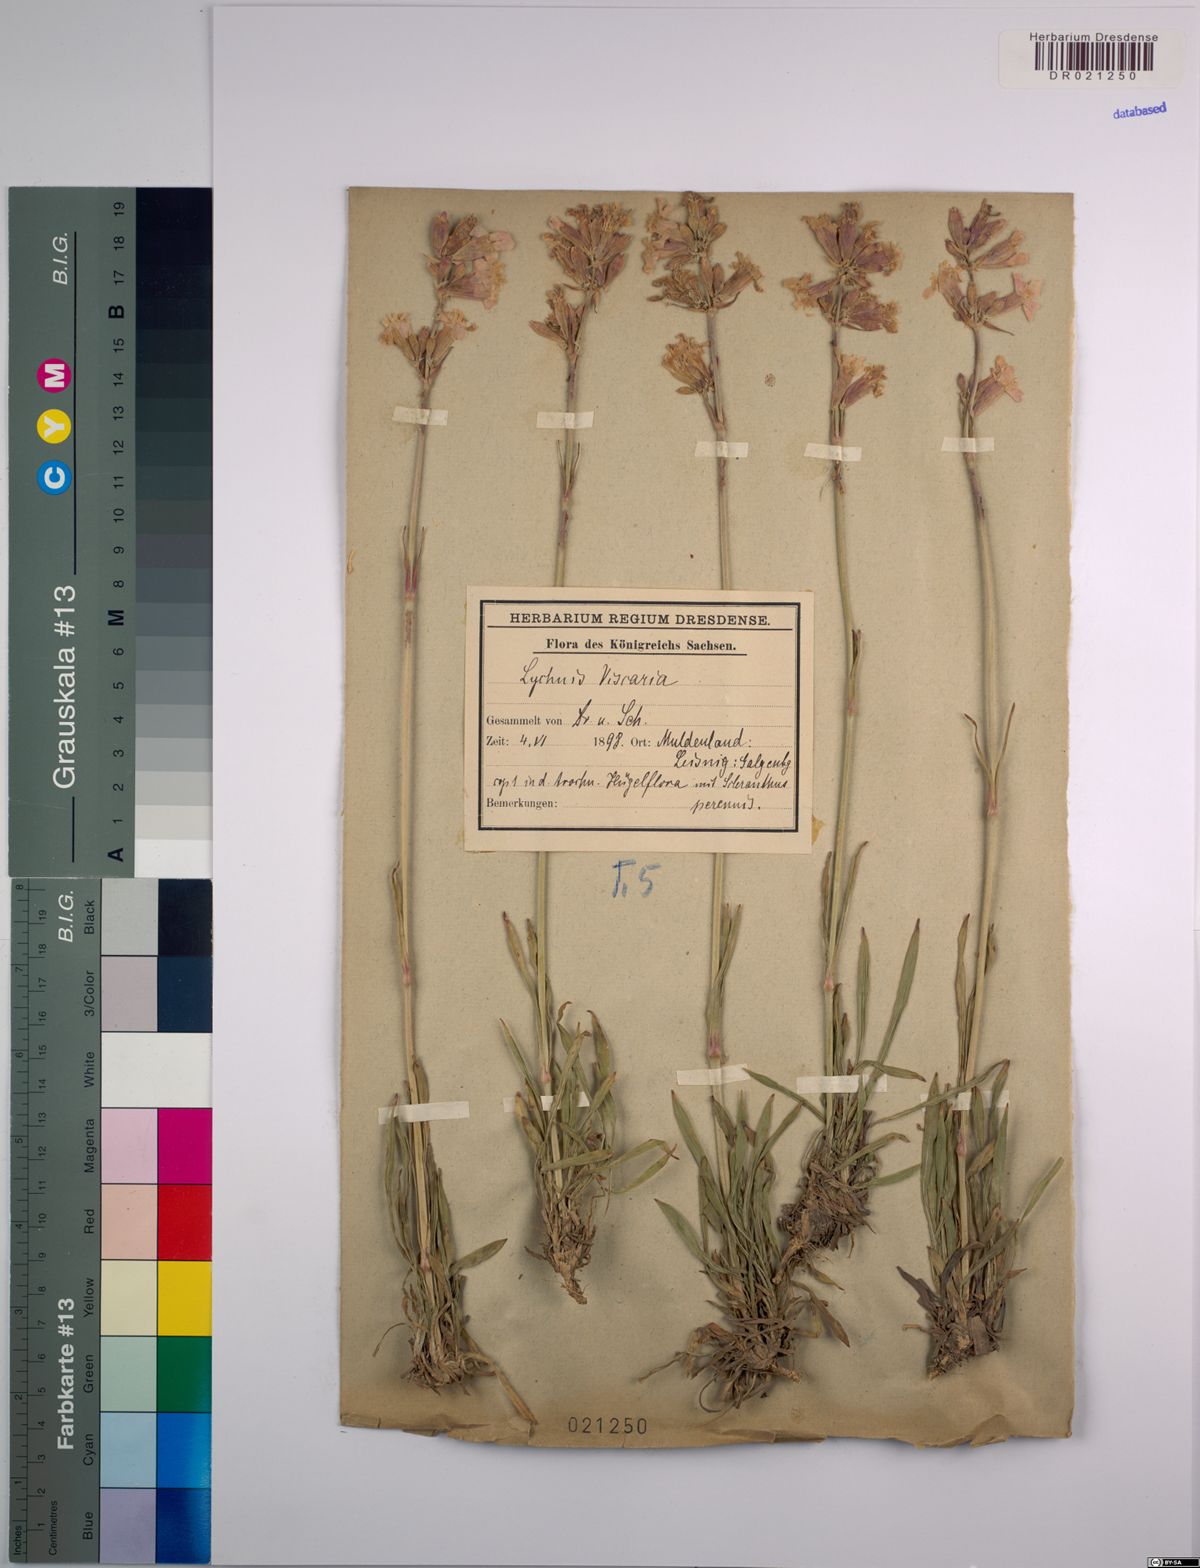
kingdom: Plantae
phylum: Tracheophyta
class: Magnoliopsida
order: Caryophyllales
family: Caryophyllaceae
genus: Viscaria
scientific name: Viscaria vulgaris
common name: Clammy campion
